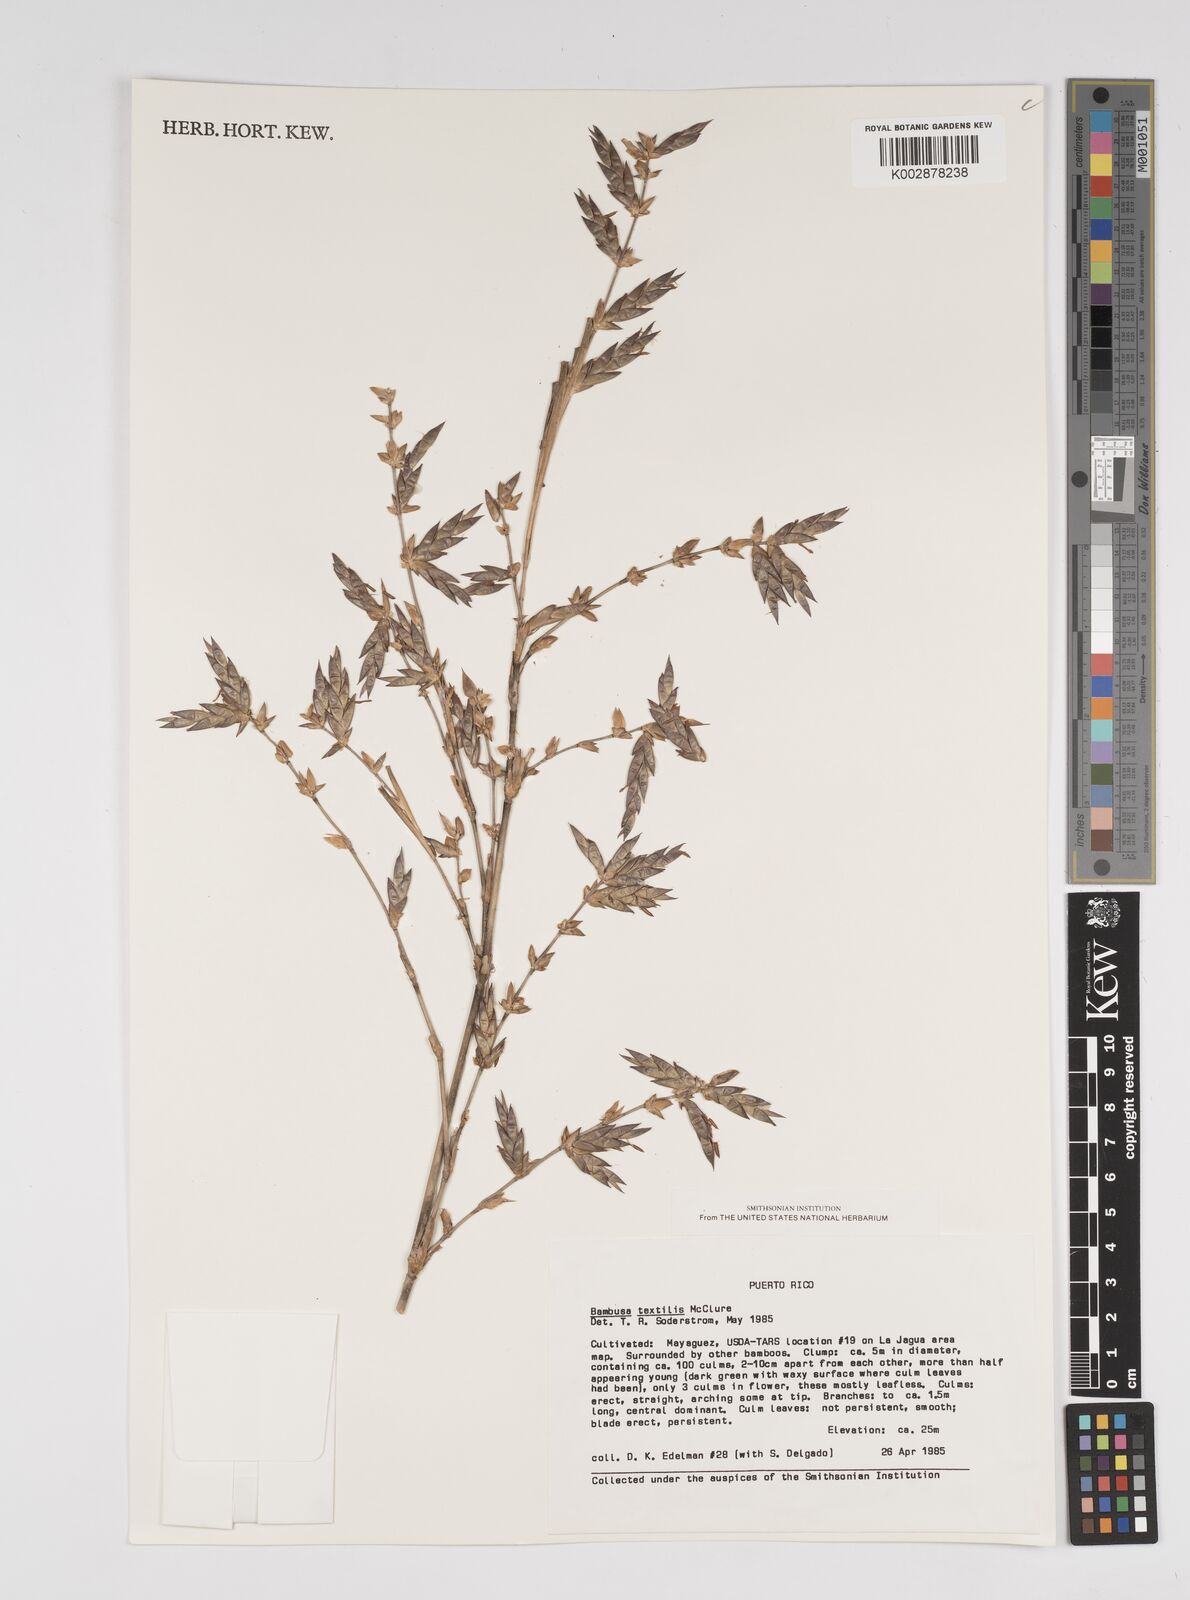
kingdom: Plantae
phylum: Tracheophyta
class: Liliopsida
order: Poales
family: Poaceae
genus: Bambusa
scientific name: Bambusa textilis
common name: Weaver's bamboo
